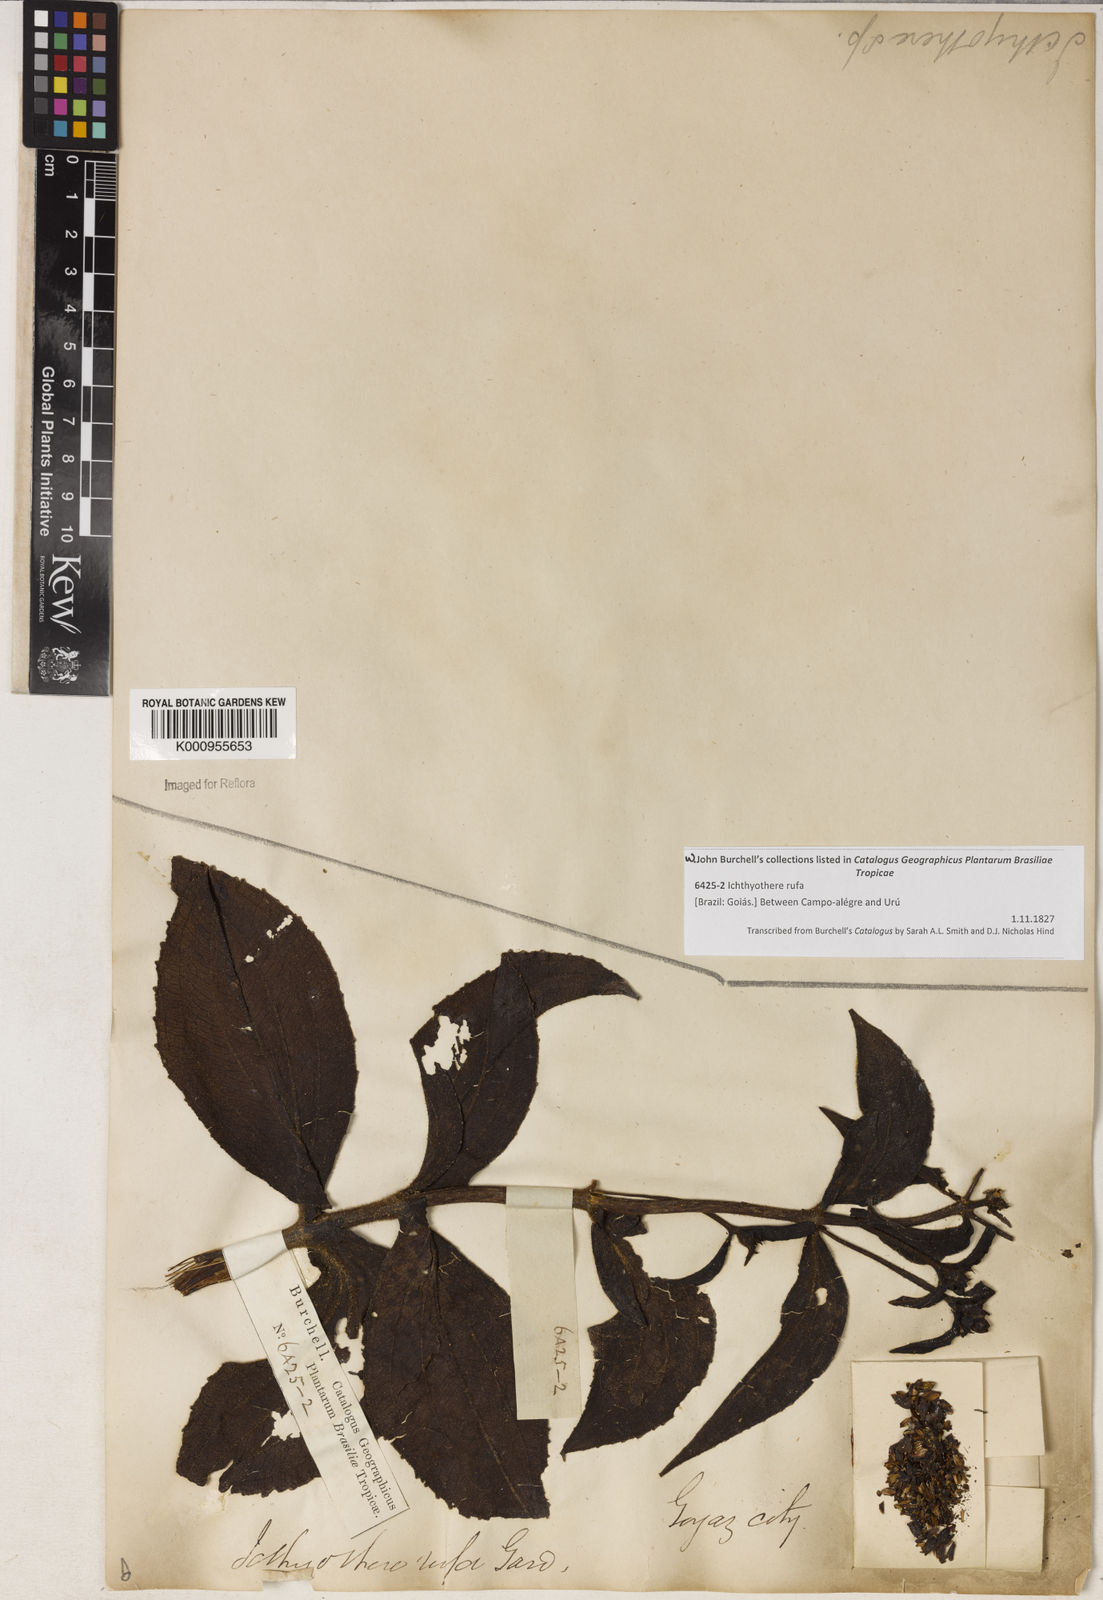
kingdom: Plantae
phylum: Tracheophyta
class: Magnoliopsida
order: Asterales
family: Asteraceae
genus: Ichthyothere
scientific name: Ichthyothere rufa
